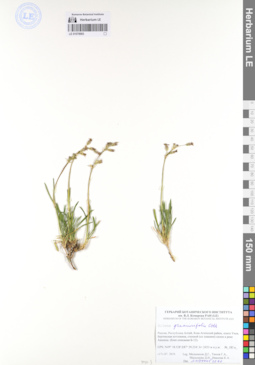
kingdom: Plantae
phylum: Tracheophyta
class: Magnoliopsida
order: Caryophyllales
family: Caryophyllaceae
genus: Silene
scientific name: Silene graminifolia
